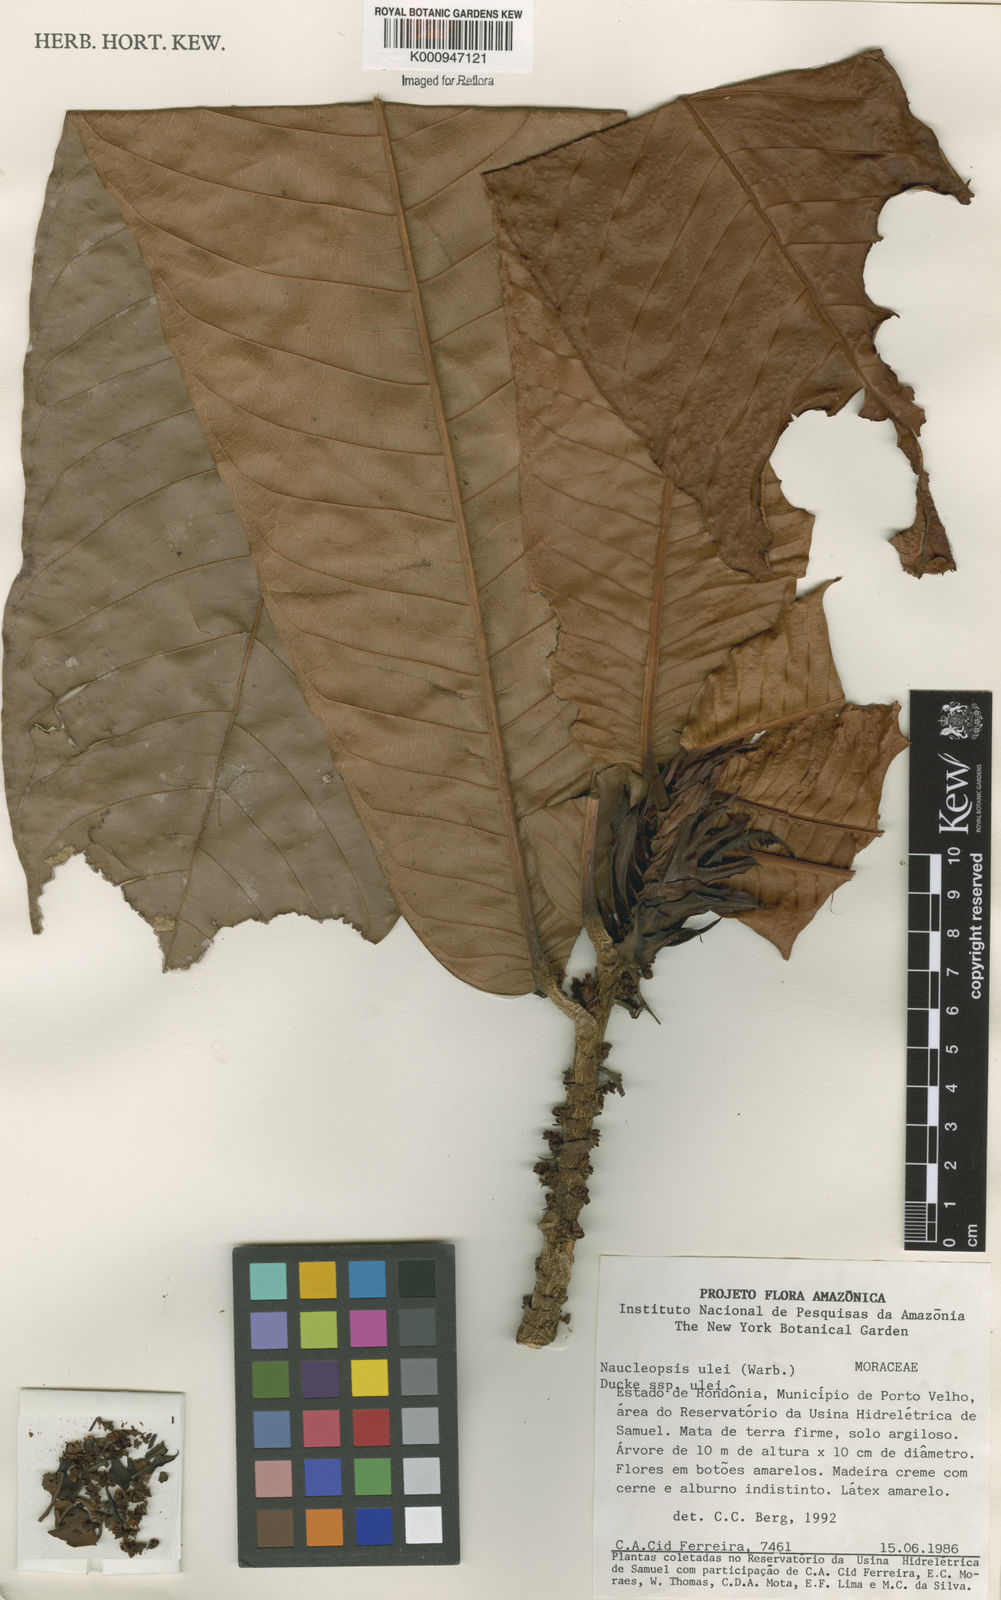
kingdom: Plantae
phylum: Tracheophyta
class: Magnoliopsida
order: Rosales
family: Moraceae
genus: Naucleopsis
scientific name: Naucleopsis ulei
